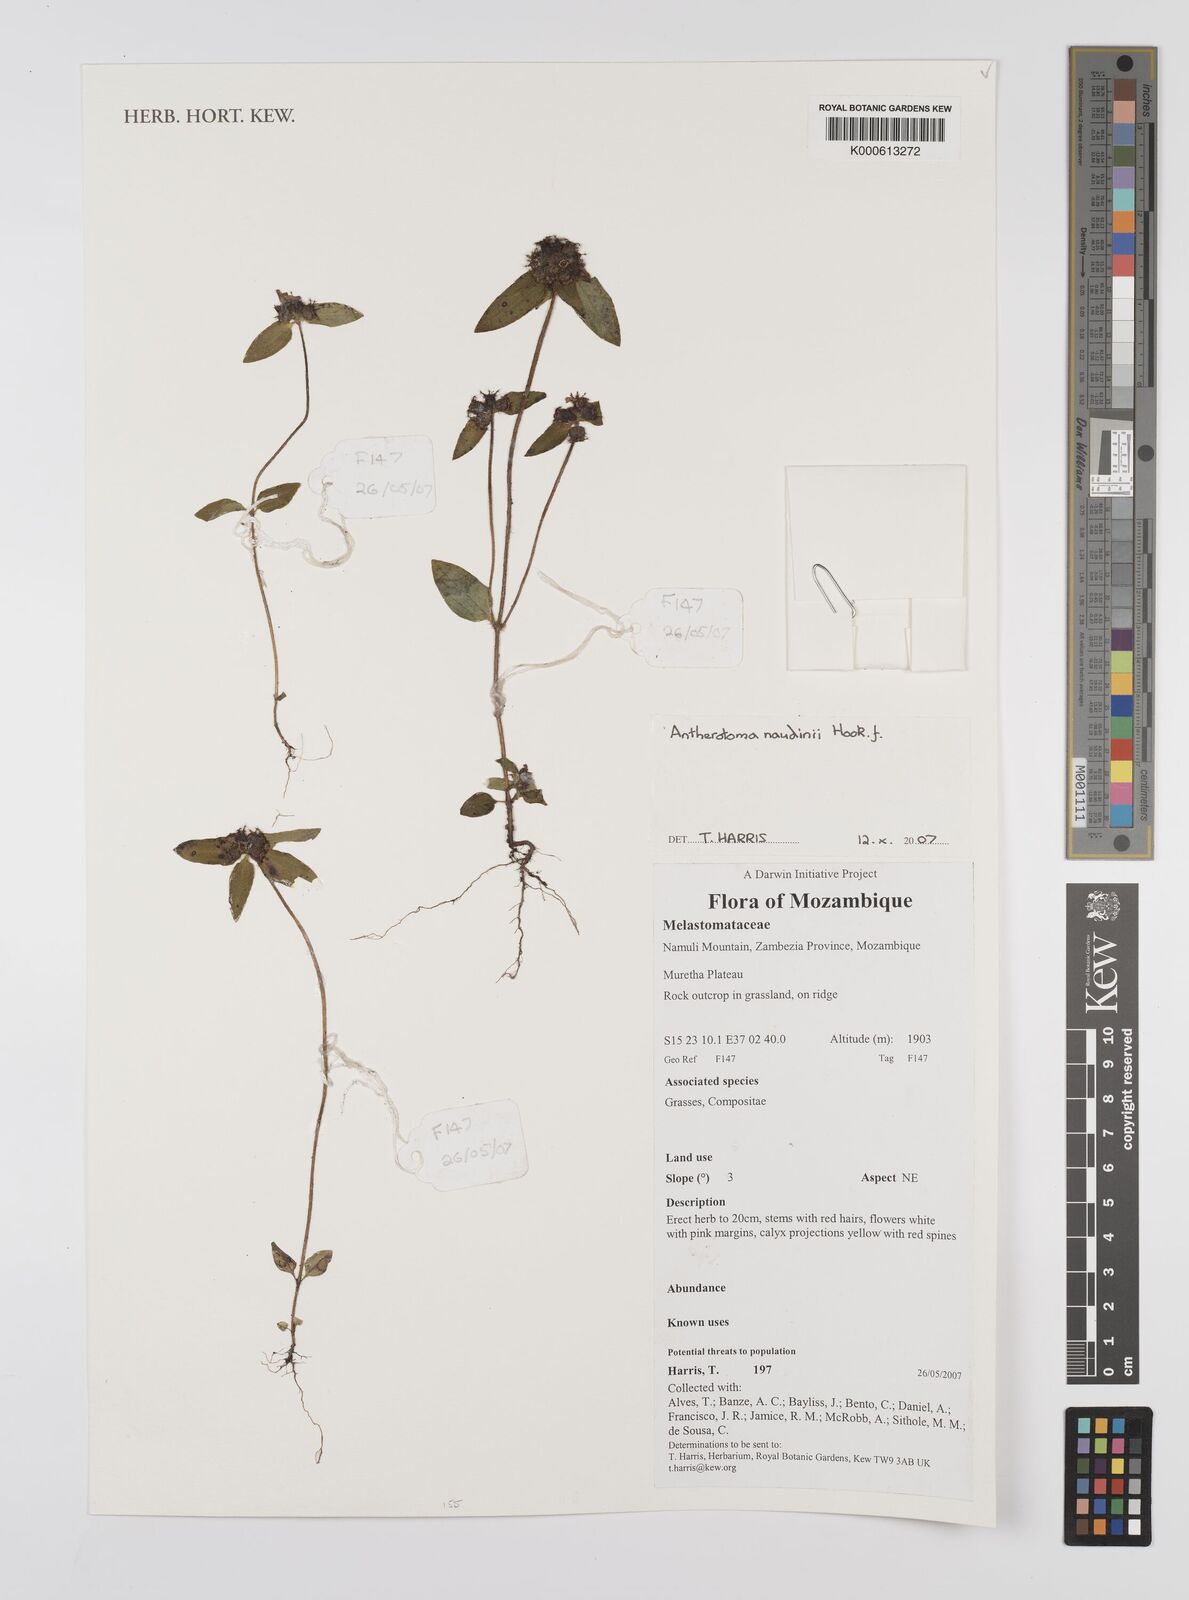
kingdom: Plantae
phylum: Tracheophyta
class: Magnoliopsida
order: Myrtales
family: Melastomataceae
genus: Antherotoma
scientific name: Antherotoma naudinii
